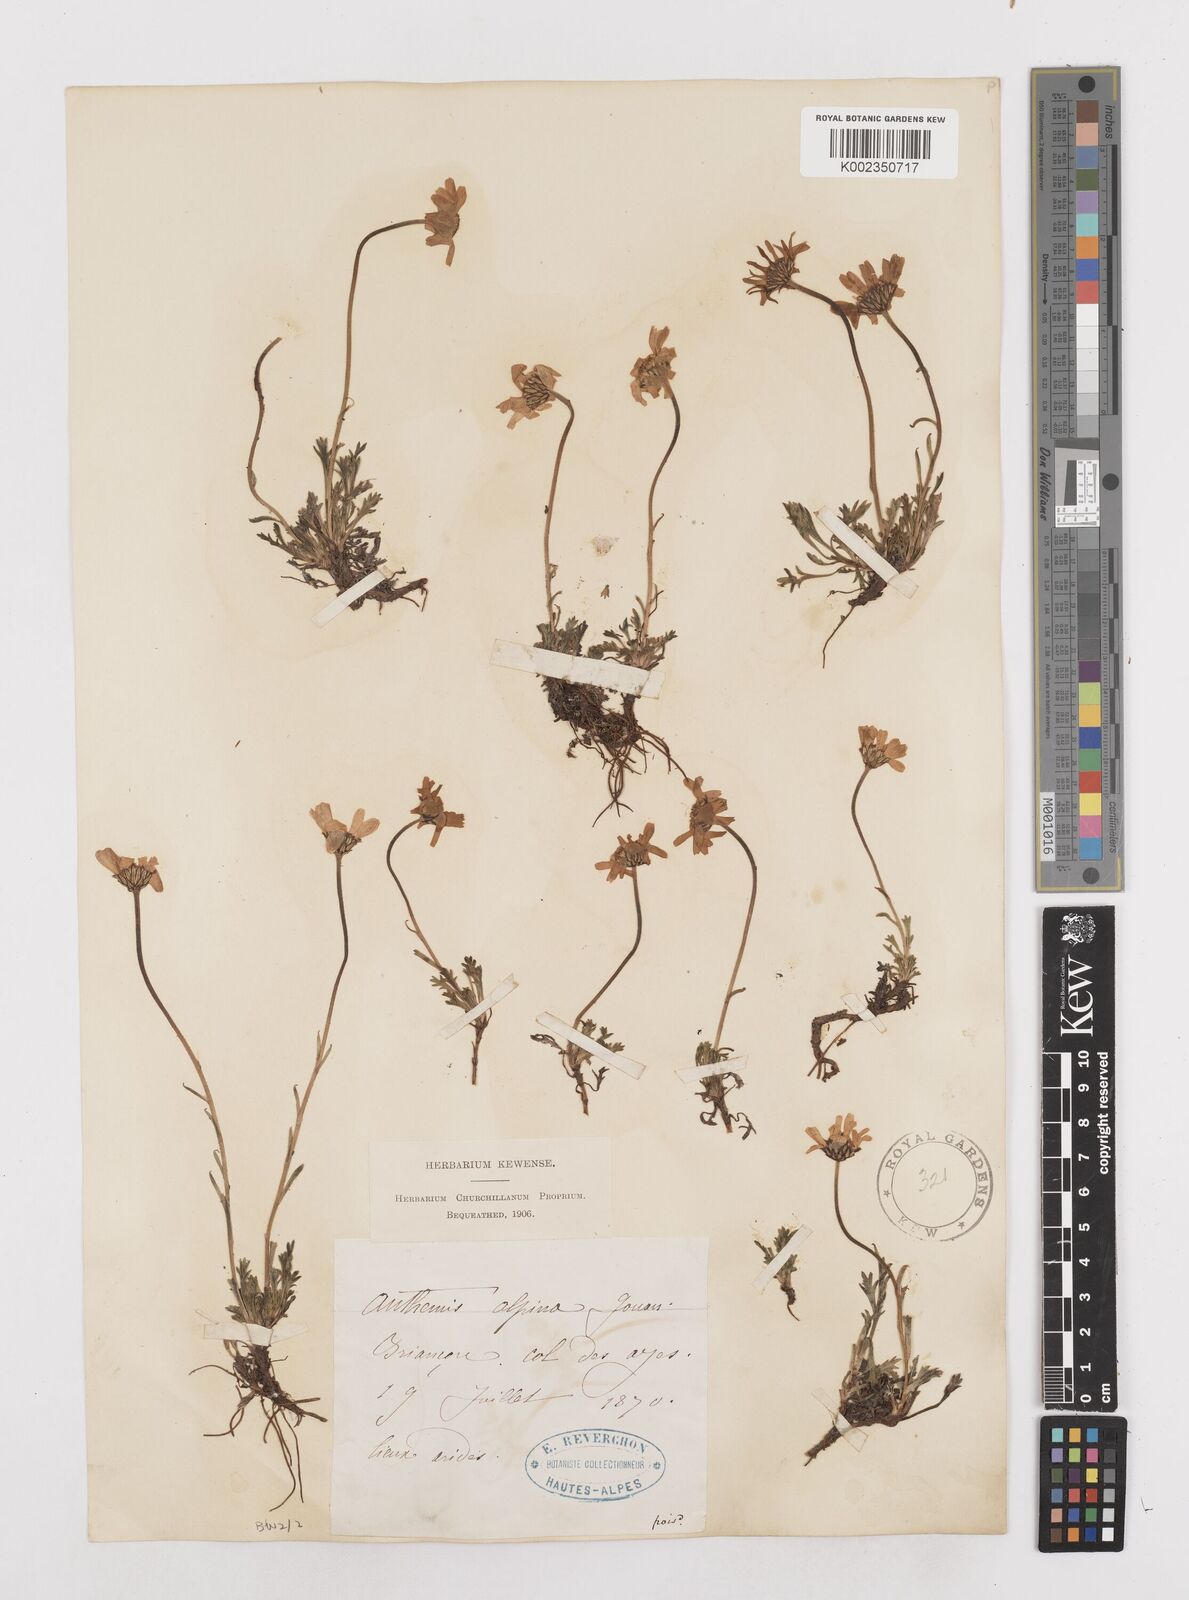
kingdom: Plantae
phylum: Tracheophyta
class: Magnoliopsida
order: Asterales
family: Asteraceae
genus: Achillea
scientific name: Achillea impatiens
